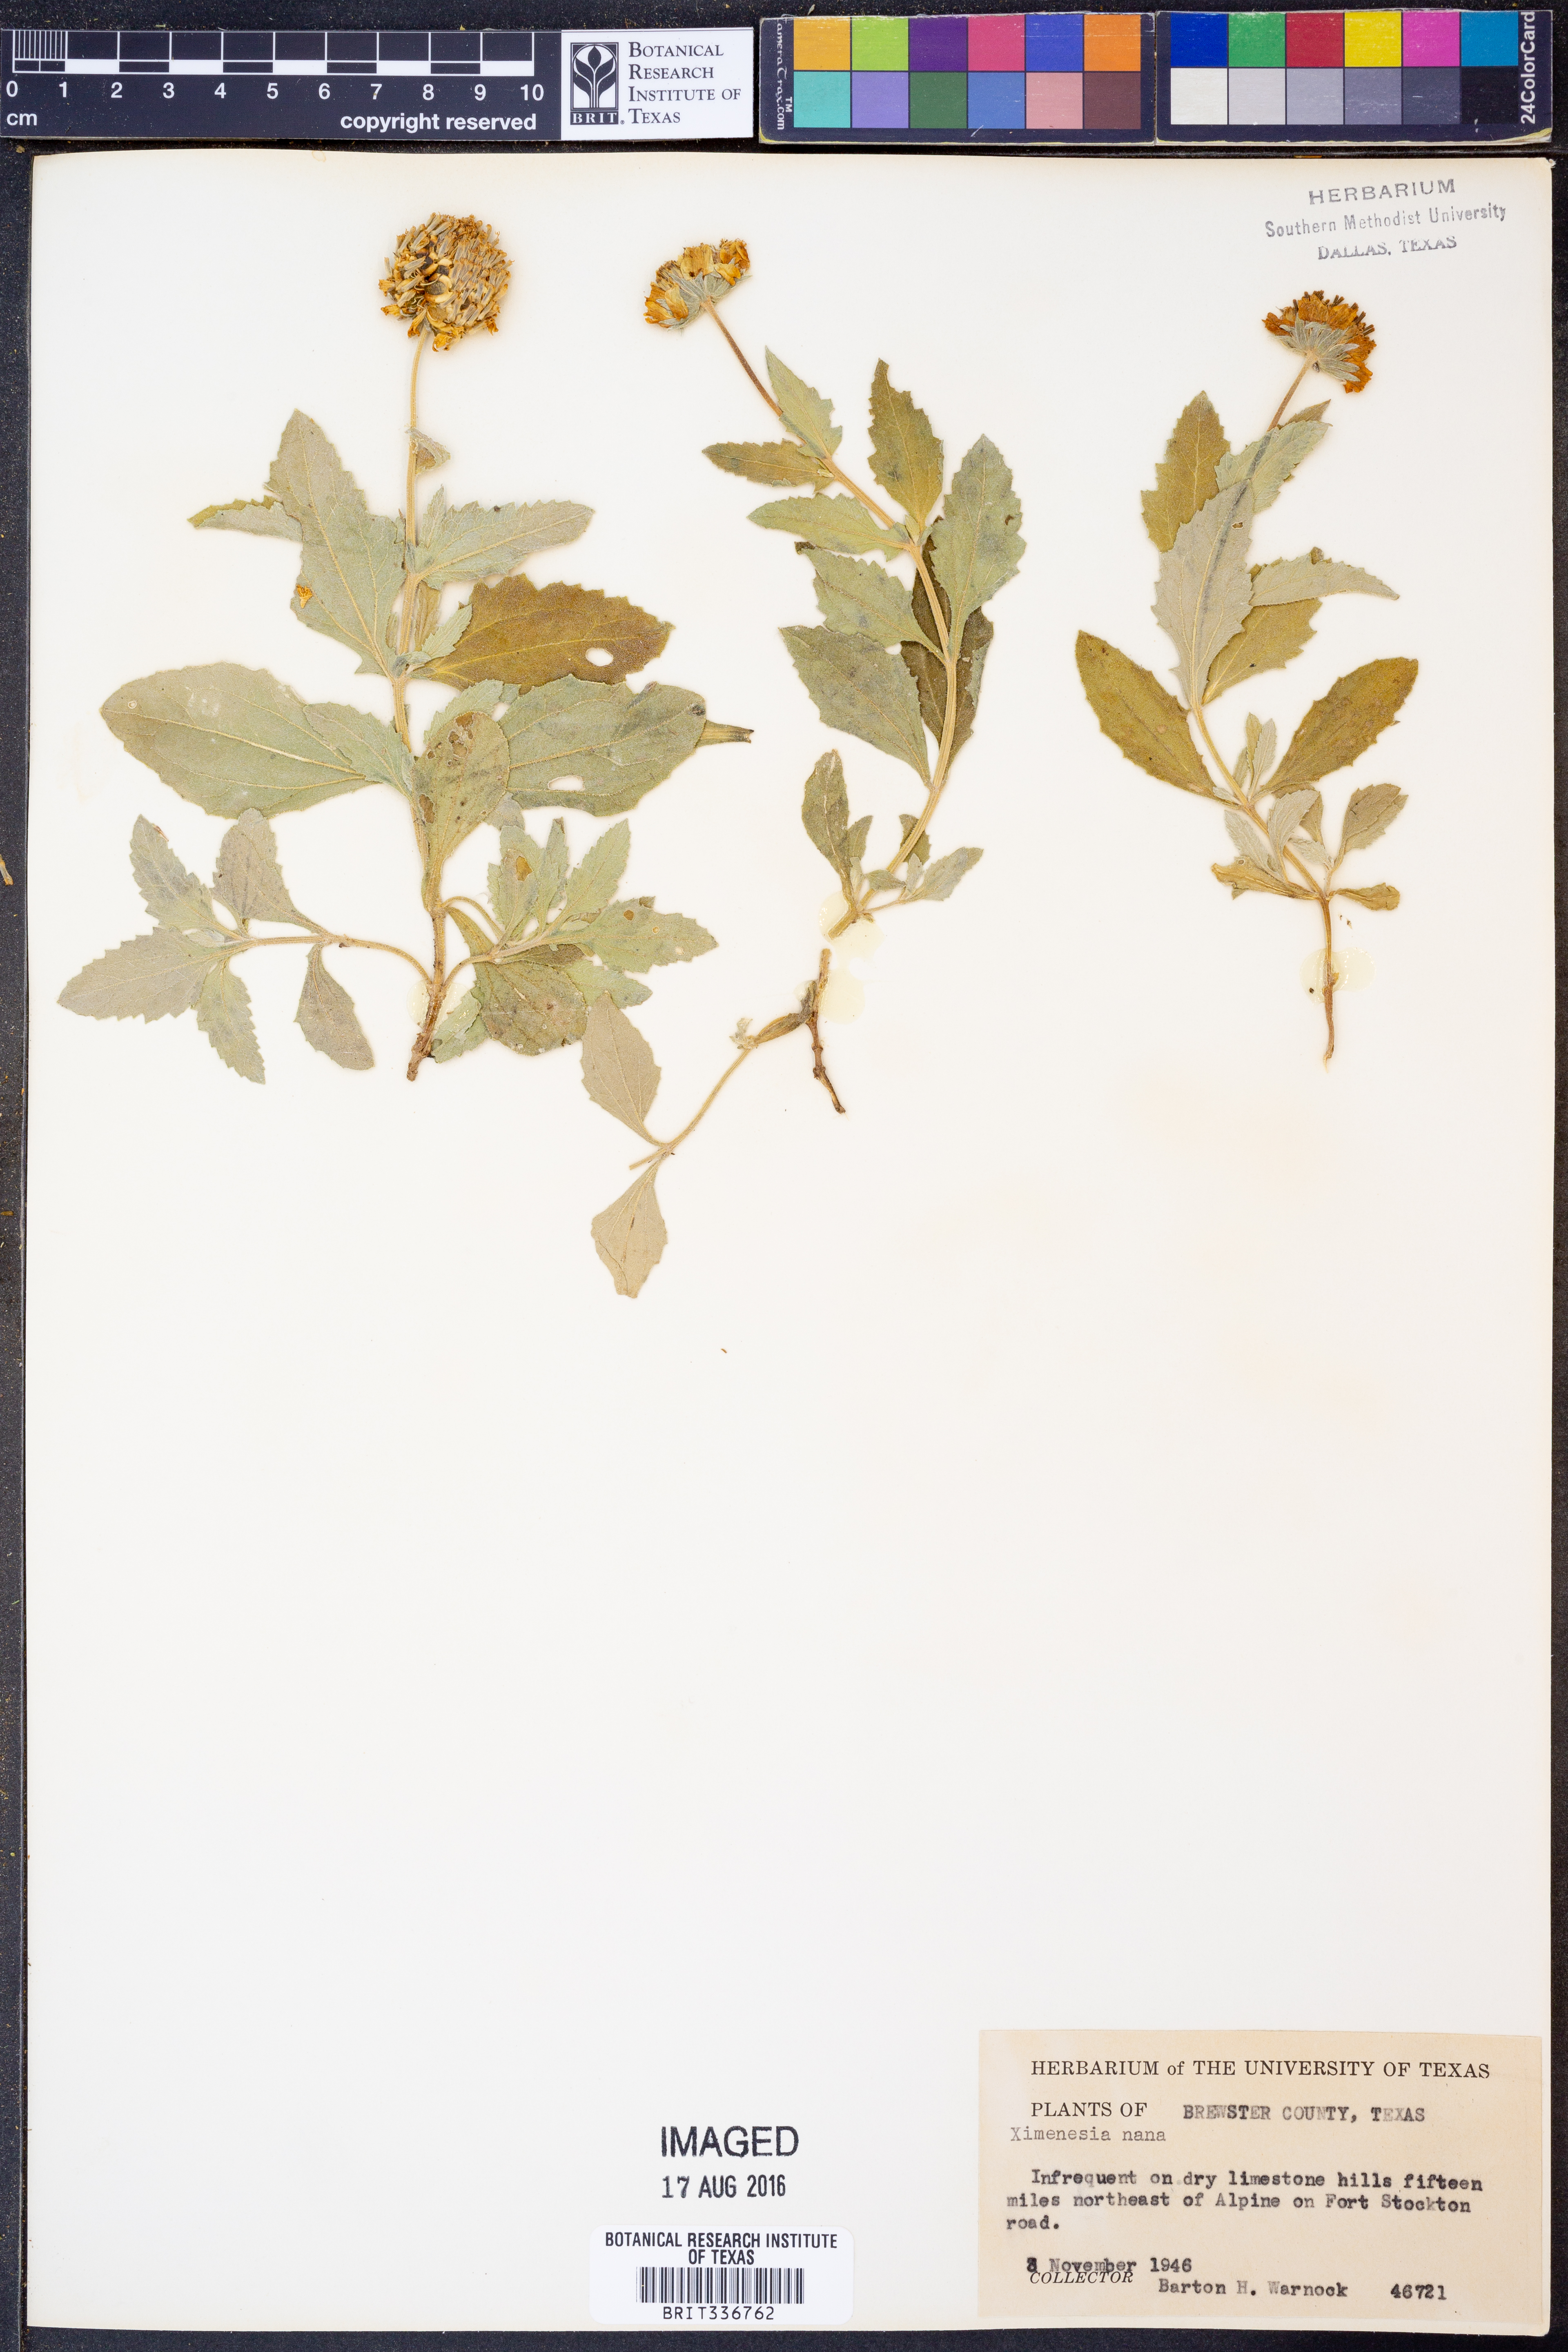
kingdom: Plantae
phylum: Tracheophyta
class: Magnoliopsida
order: Asterales
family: Asteraceae
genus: Verbesina
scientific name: Verbesina nana
